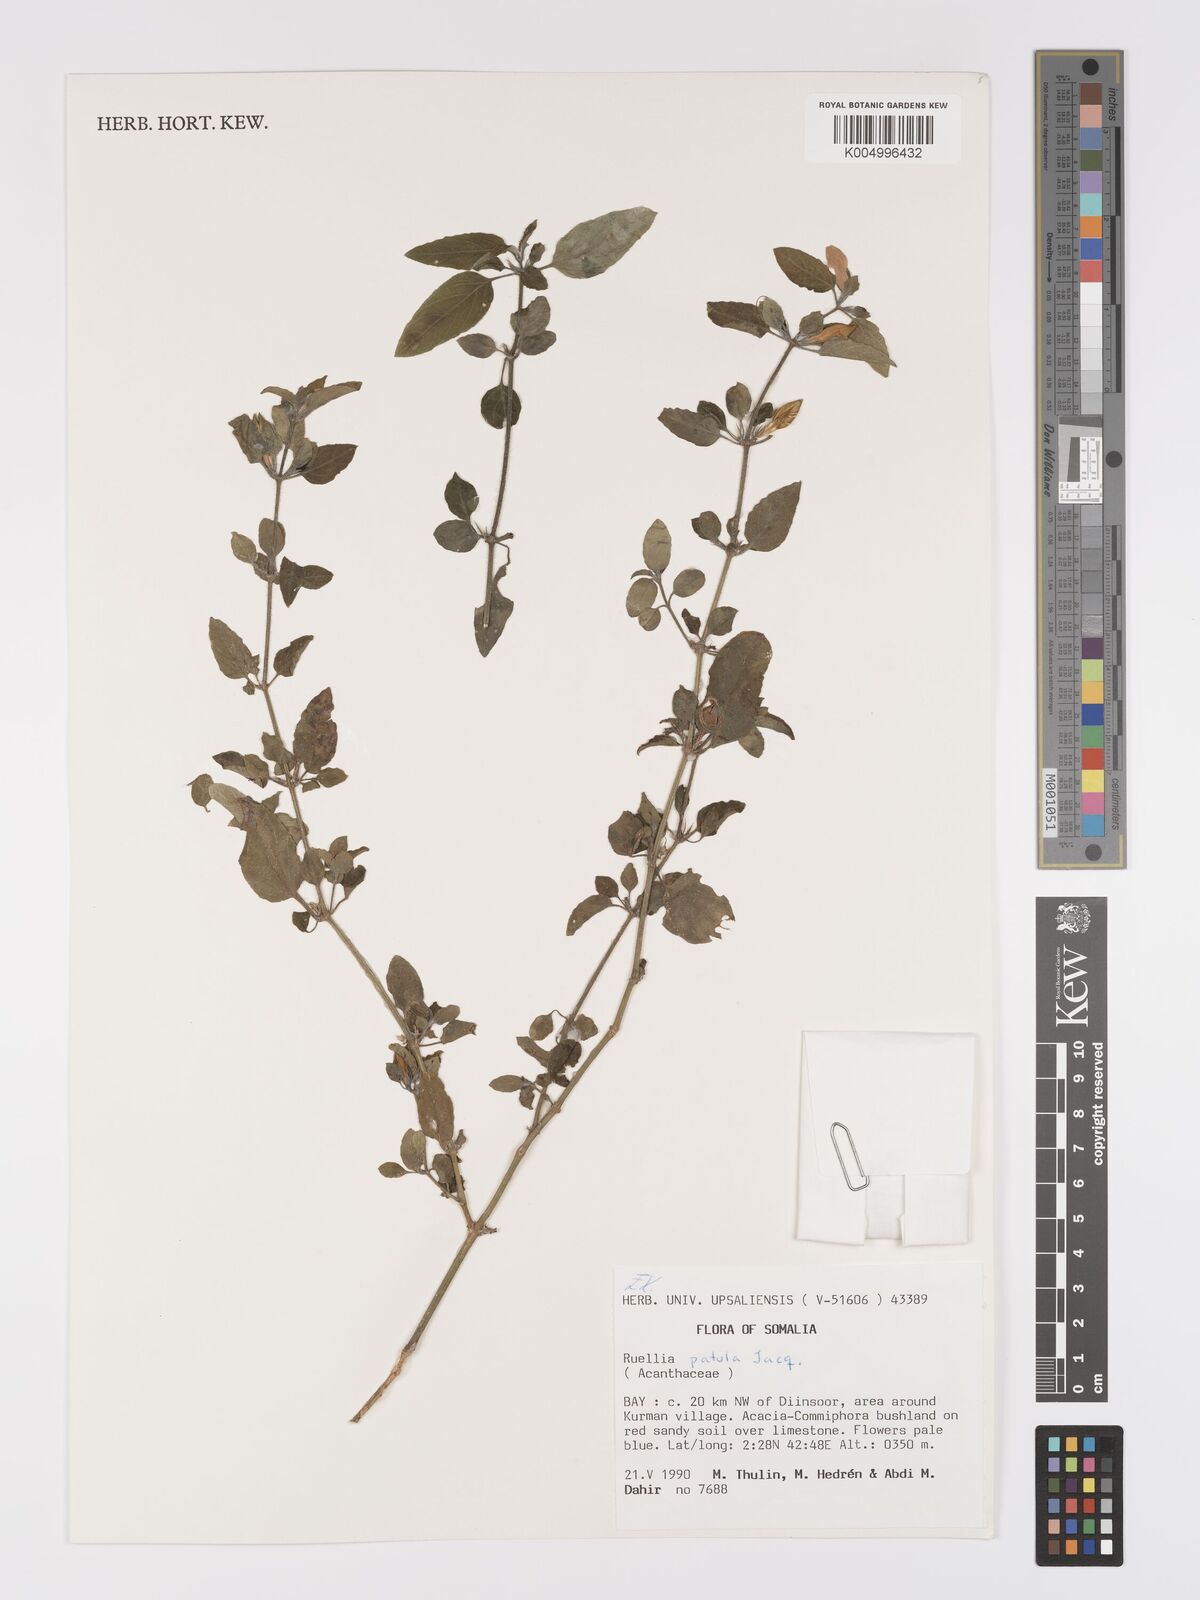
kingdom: Plantae
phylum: Tracheophyta
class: Magnoliopsida
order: Lamiales
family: Acanthaceae
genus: Ruellia
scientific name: Ruellia patula
